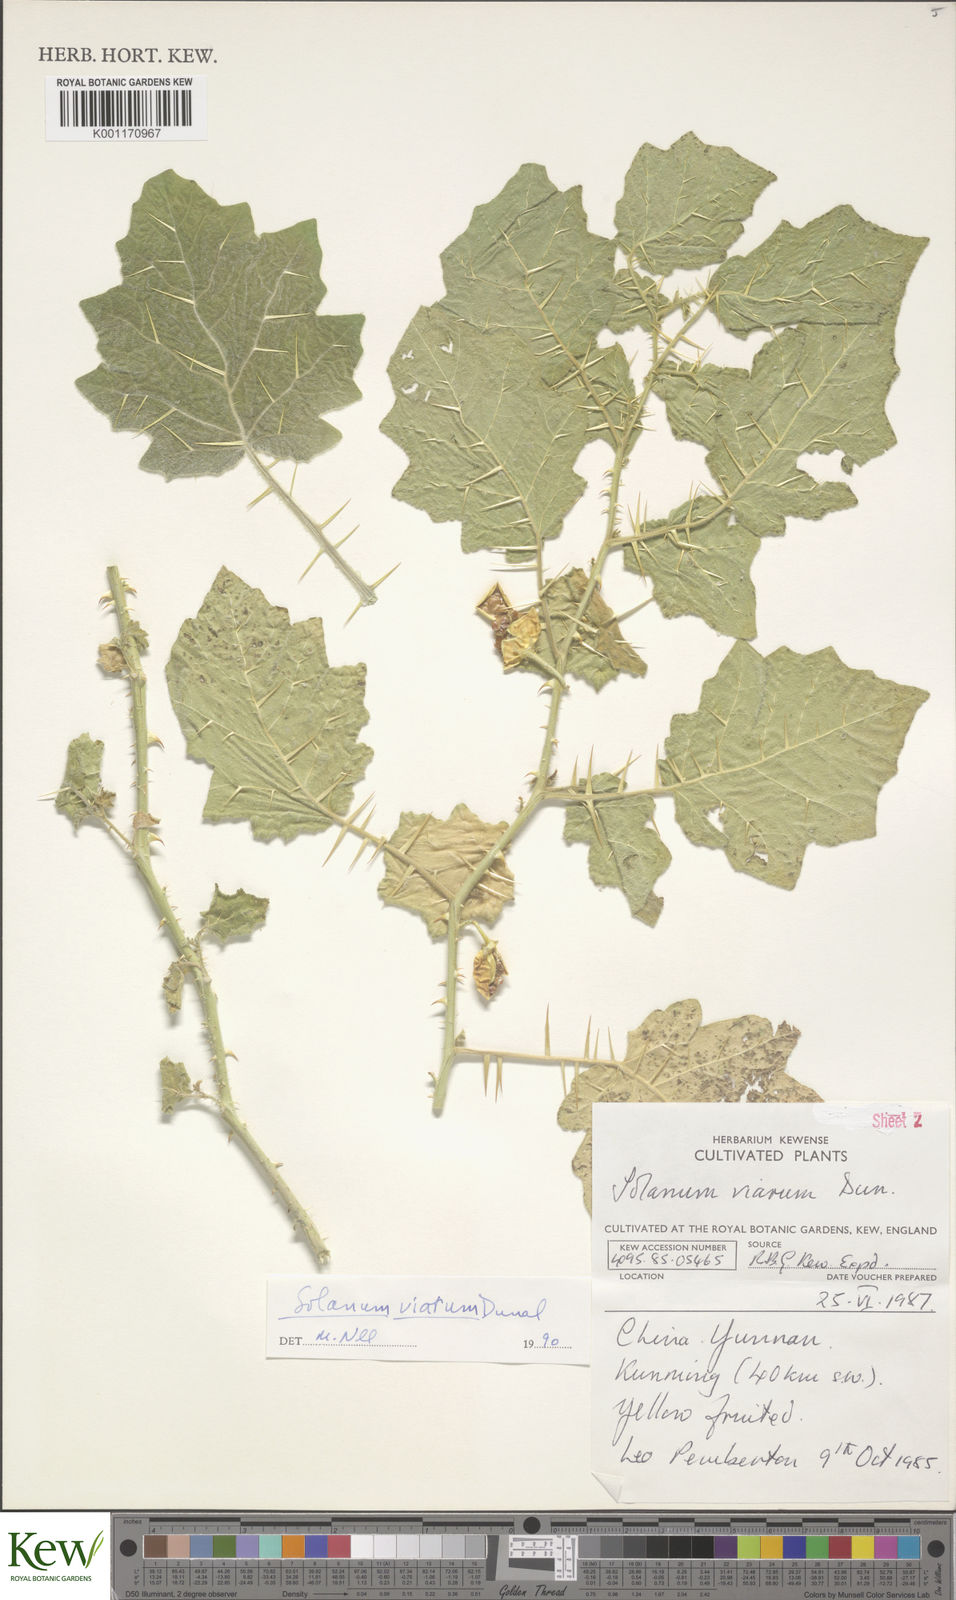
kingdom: Plantae
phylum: Tracheophyta
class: Magnoliopsida
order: Solanales
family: Solanaceae
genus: Solanum
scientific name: Solanum viarum
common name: Tropical soda apple
